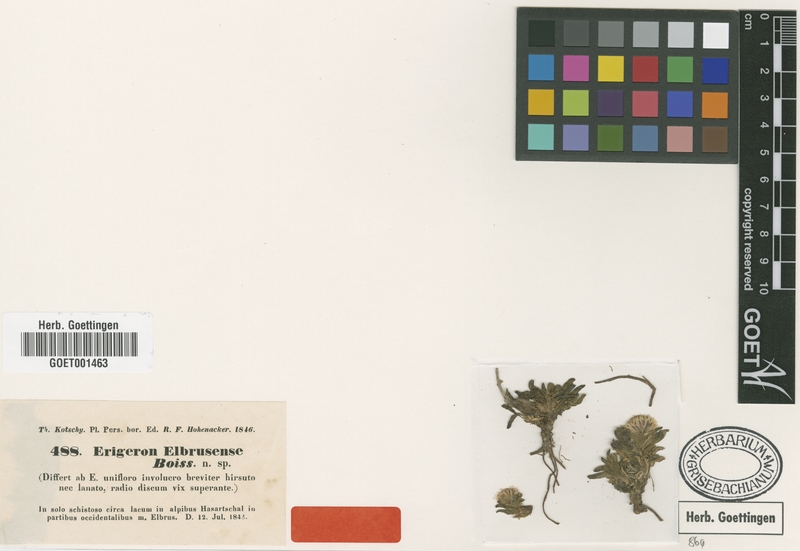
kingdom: Plantae
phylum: Tracheophyta
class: Magnoliopsida
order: Asterales
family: Asteraceae
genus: Erigeron
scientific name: Erigeron elbrusensis
